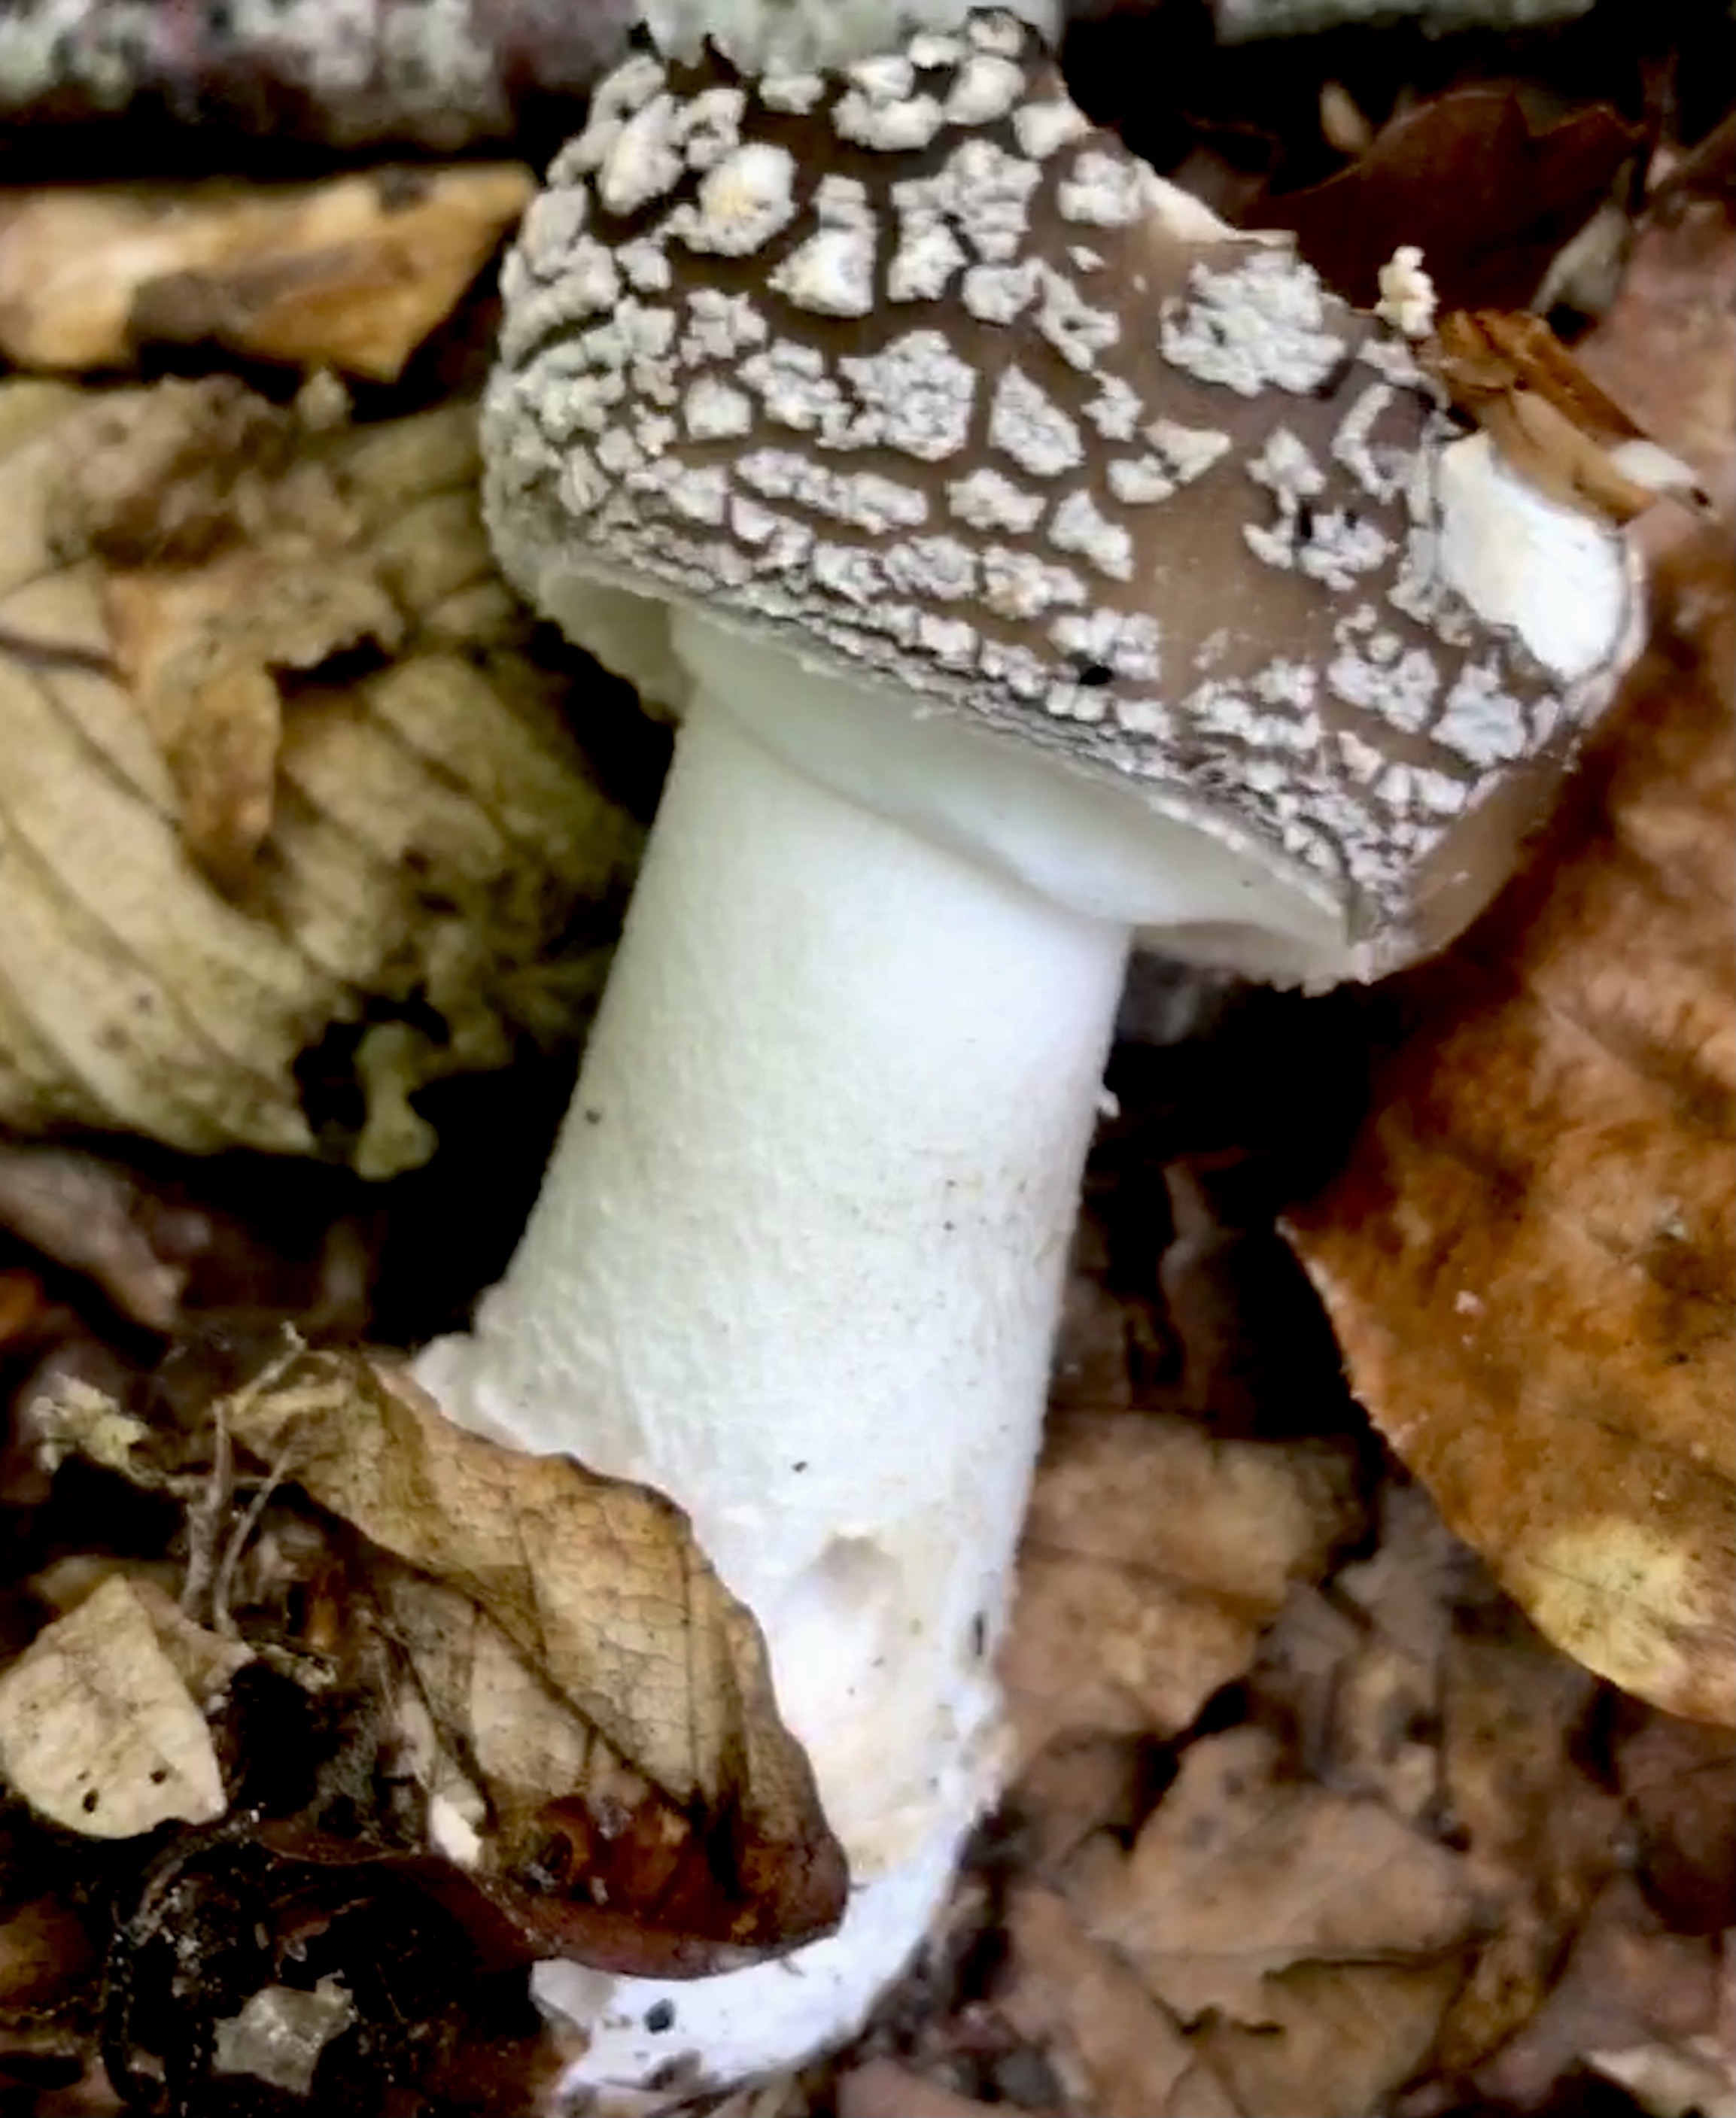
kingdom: Fungi
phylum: Basidiomycota
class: Agaricomycetes
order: Agaricales
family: Amanitaceae
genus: Amanita
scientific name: Amanita pantherina
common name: panter-fluesvamp
